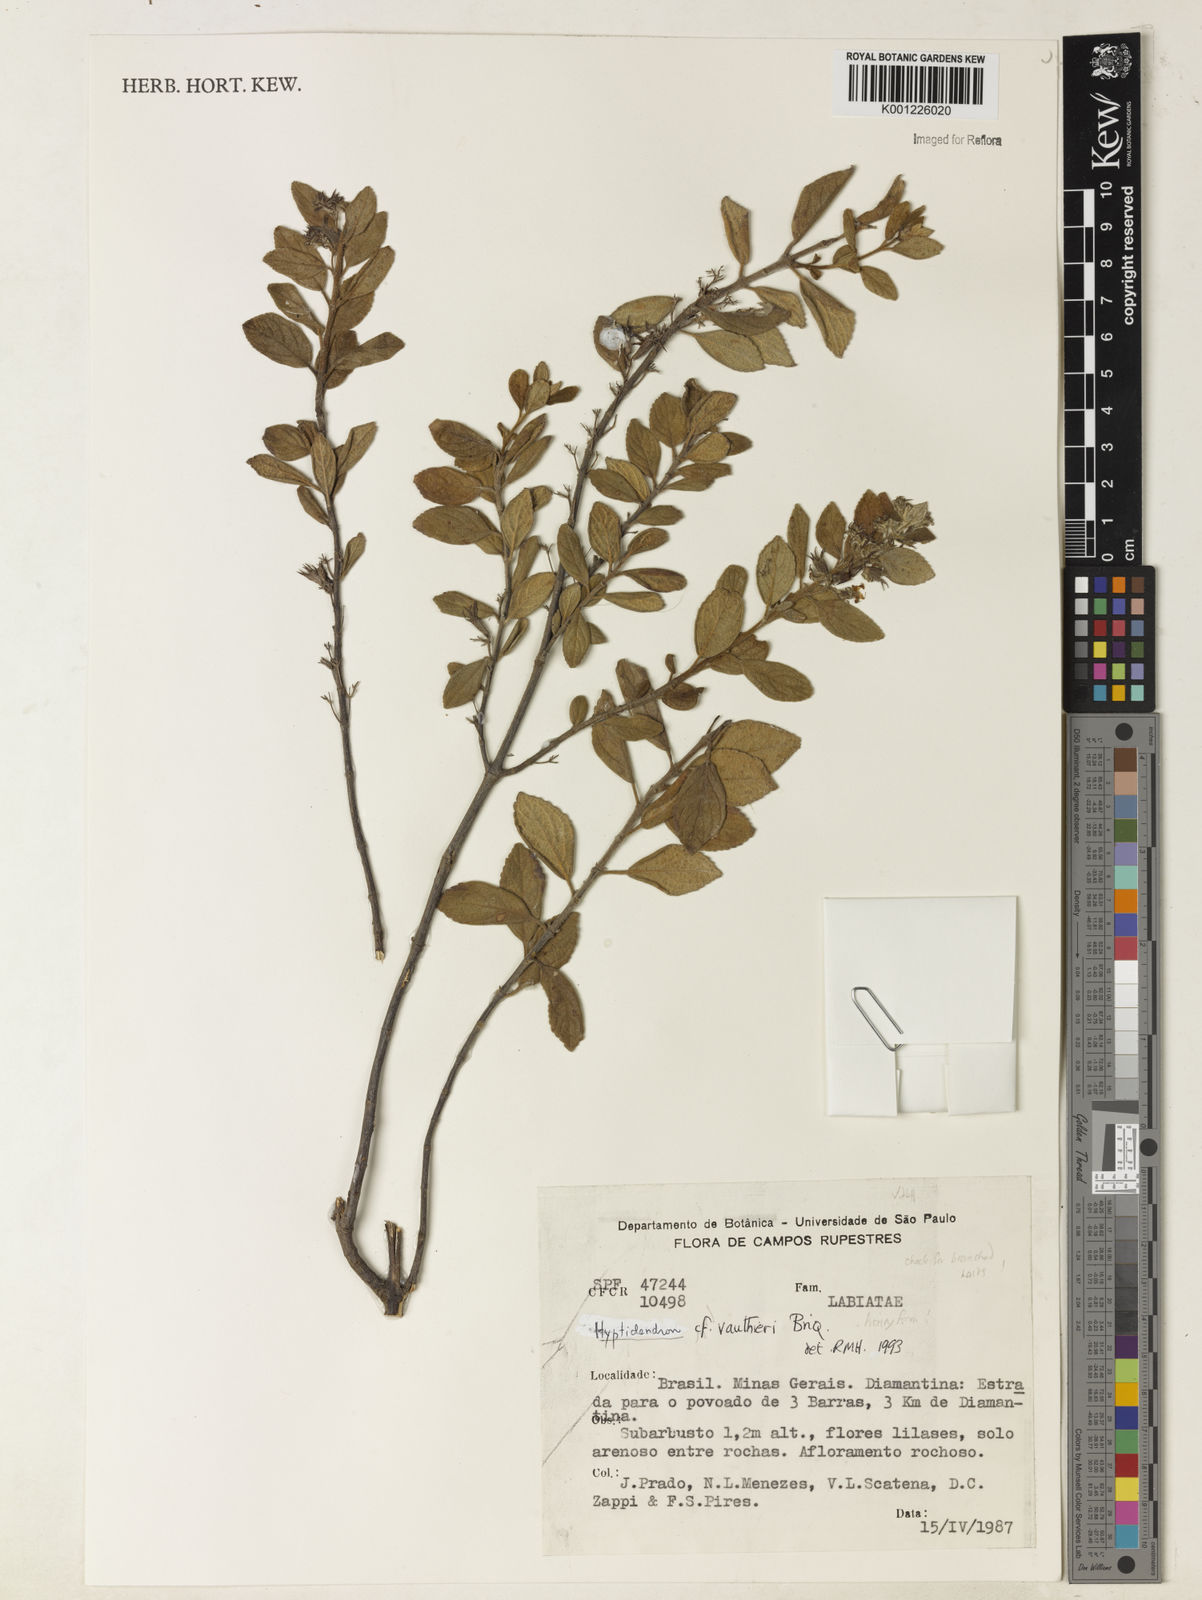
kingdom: Plantae
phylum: Tracheophyta
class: Magnoliopsida
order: Lamiales
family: Lamiaceae
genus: Hyptidendron
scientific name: Hyptidendron vauthieri
